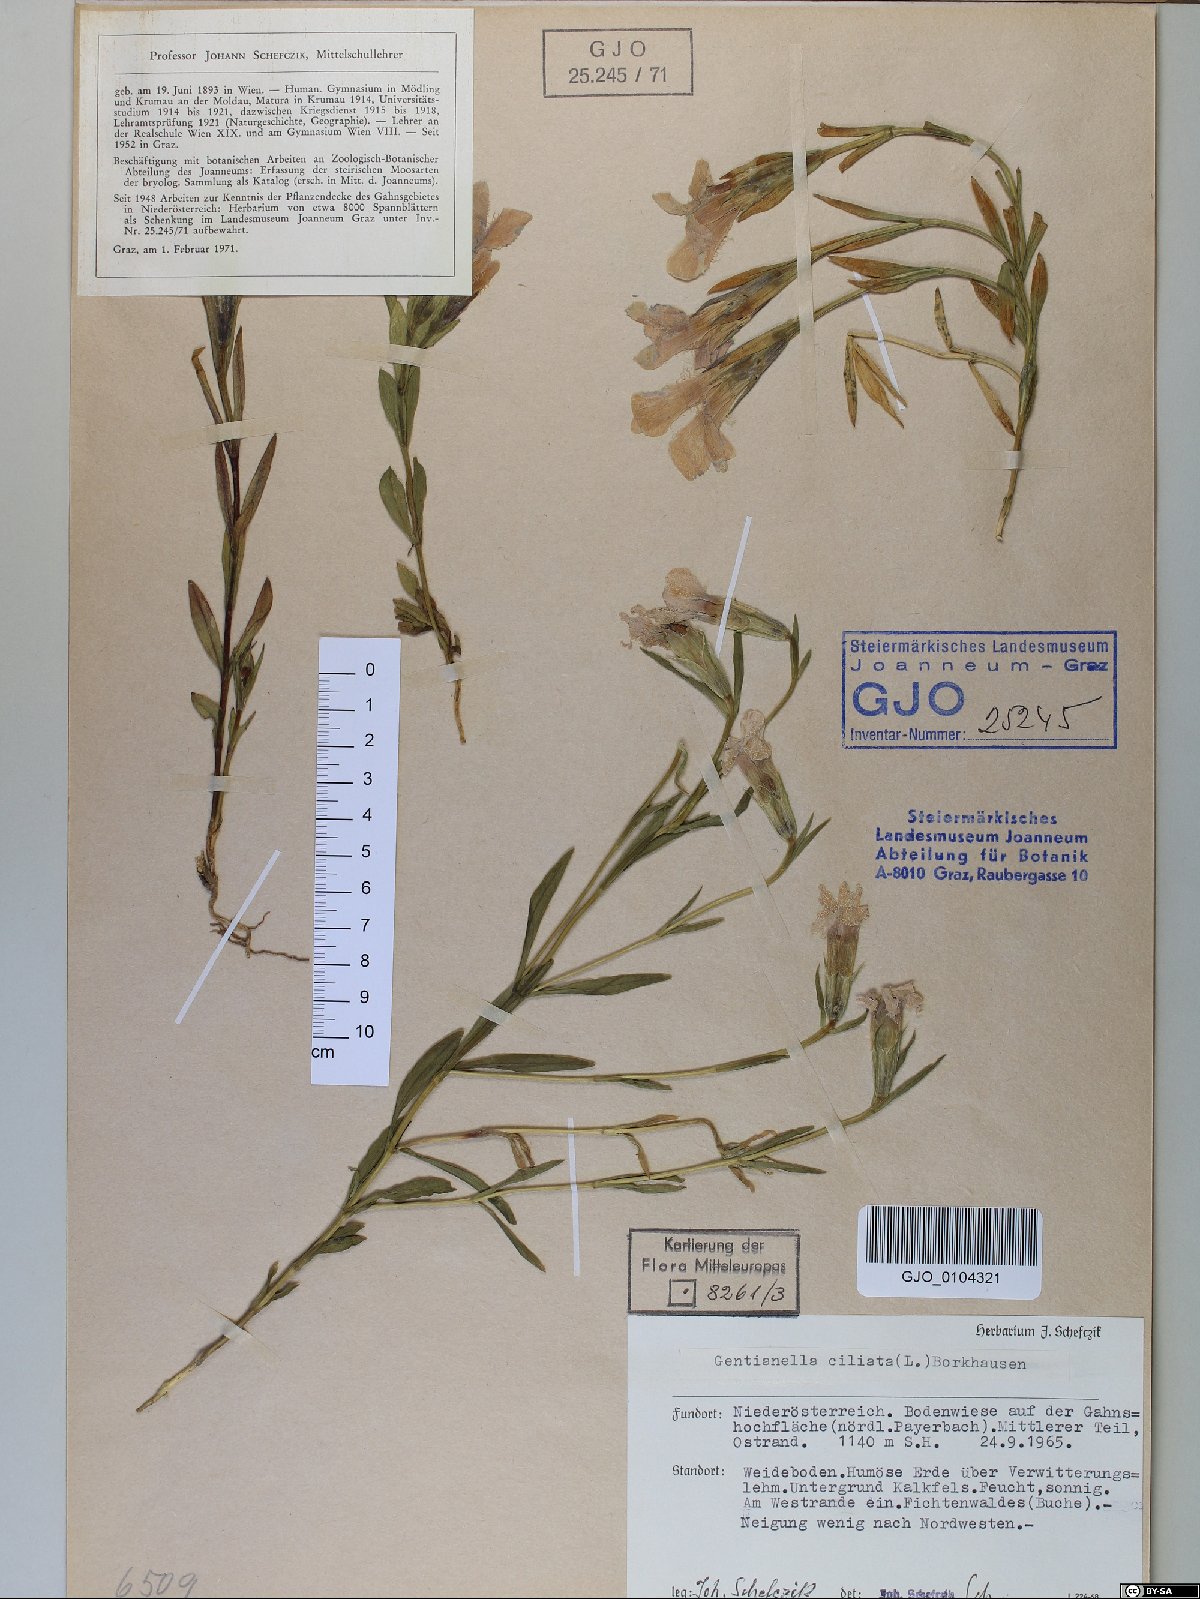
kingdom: Plantae
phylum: Tracheophyta
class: Magnoliopsida
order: Gentianales
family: Gentianaceae
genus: Gentianopsis
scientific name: Gentianopsis ciliata
